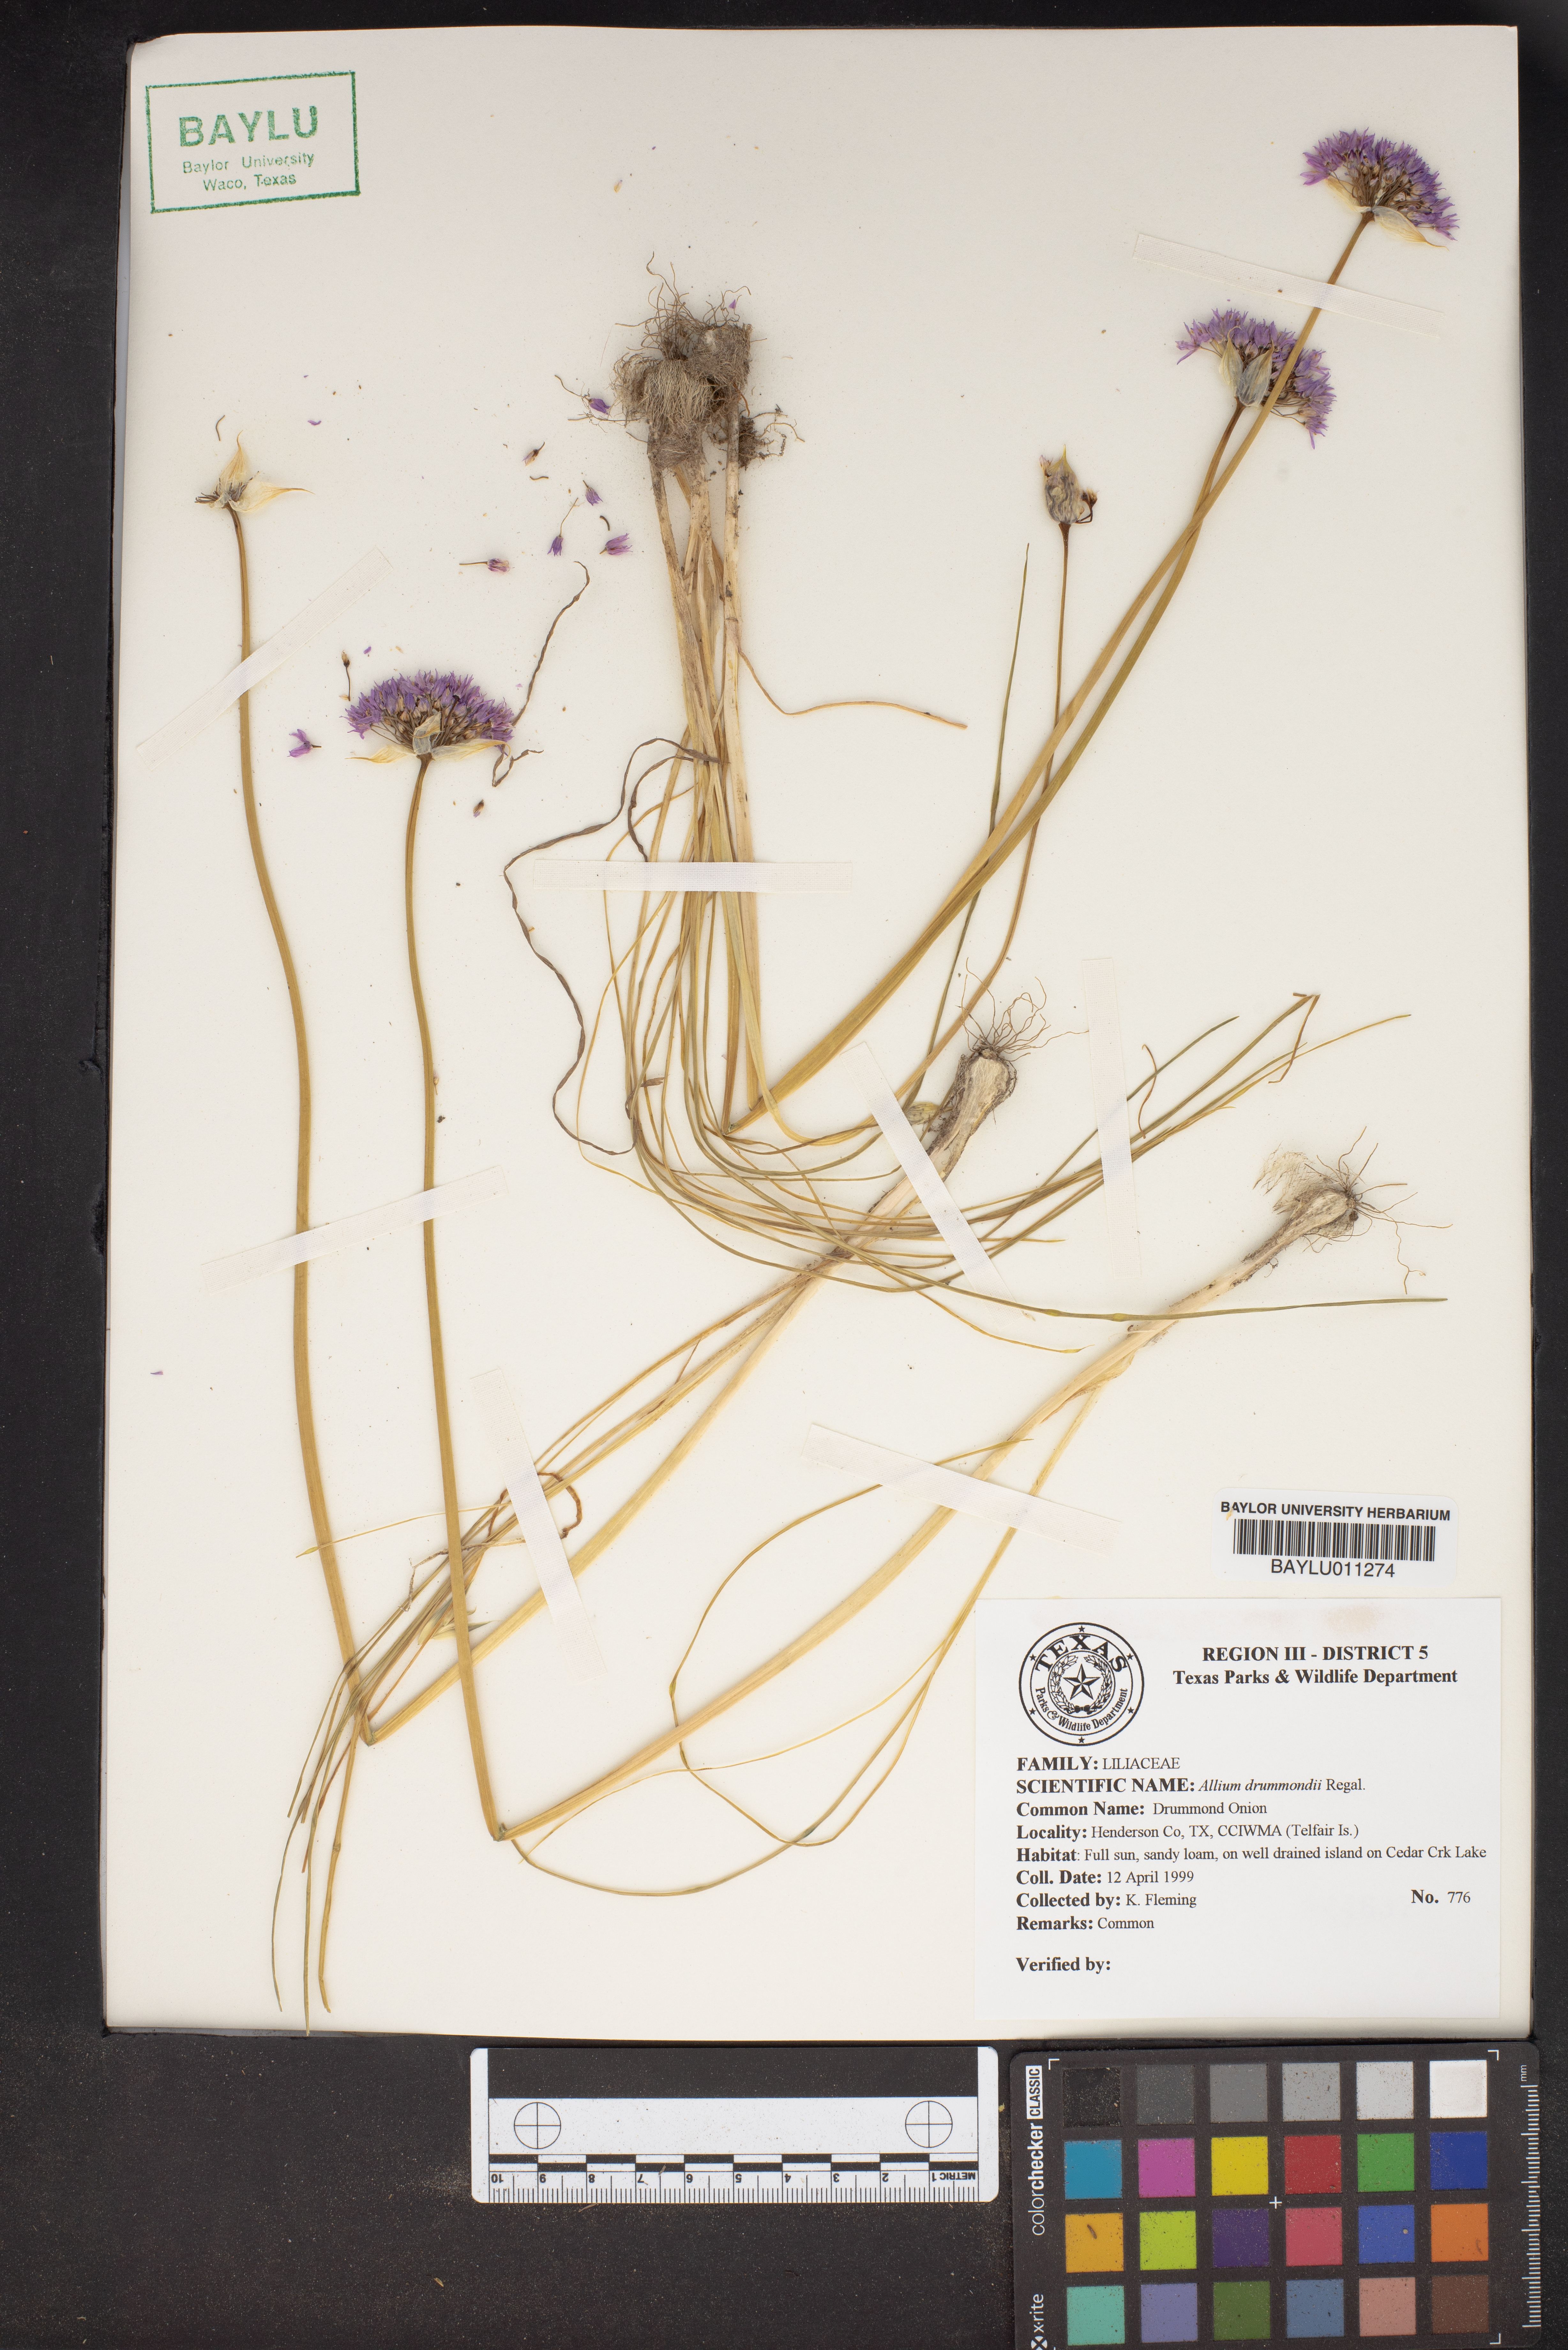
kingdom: Plantae
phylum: Tracheophyta
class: Liliopsida
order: Asparagales
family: Amaryllidaceae
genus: Allium
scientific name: Allium drummondii
